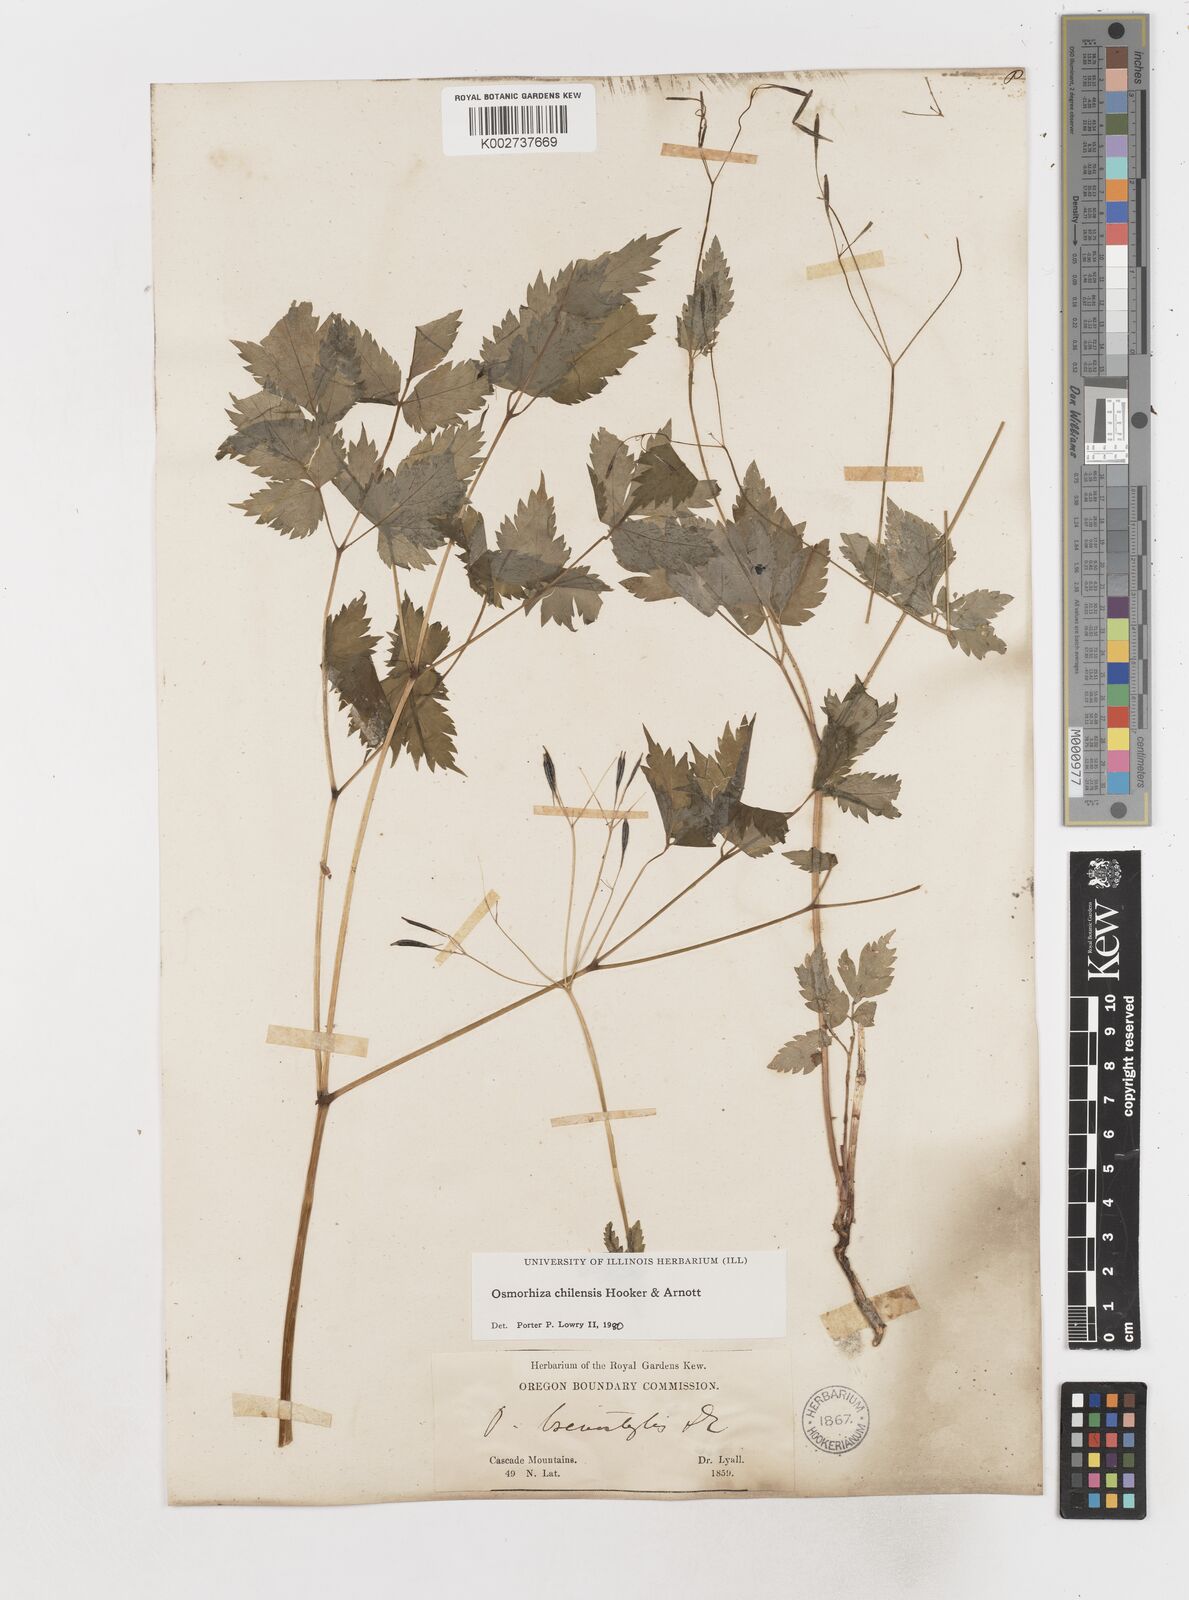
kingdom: Plantae
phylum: Tracheophyta
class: Magnoliopsida
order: Apiales
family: Apiaceae
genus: Osmorhiza
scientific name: Osmorhiza berteroi
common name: Mountain sweet cicely
